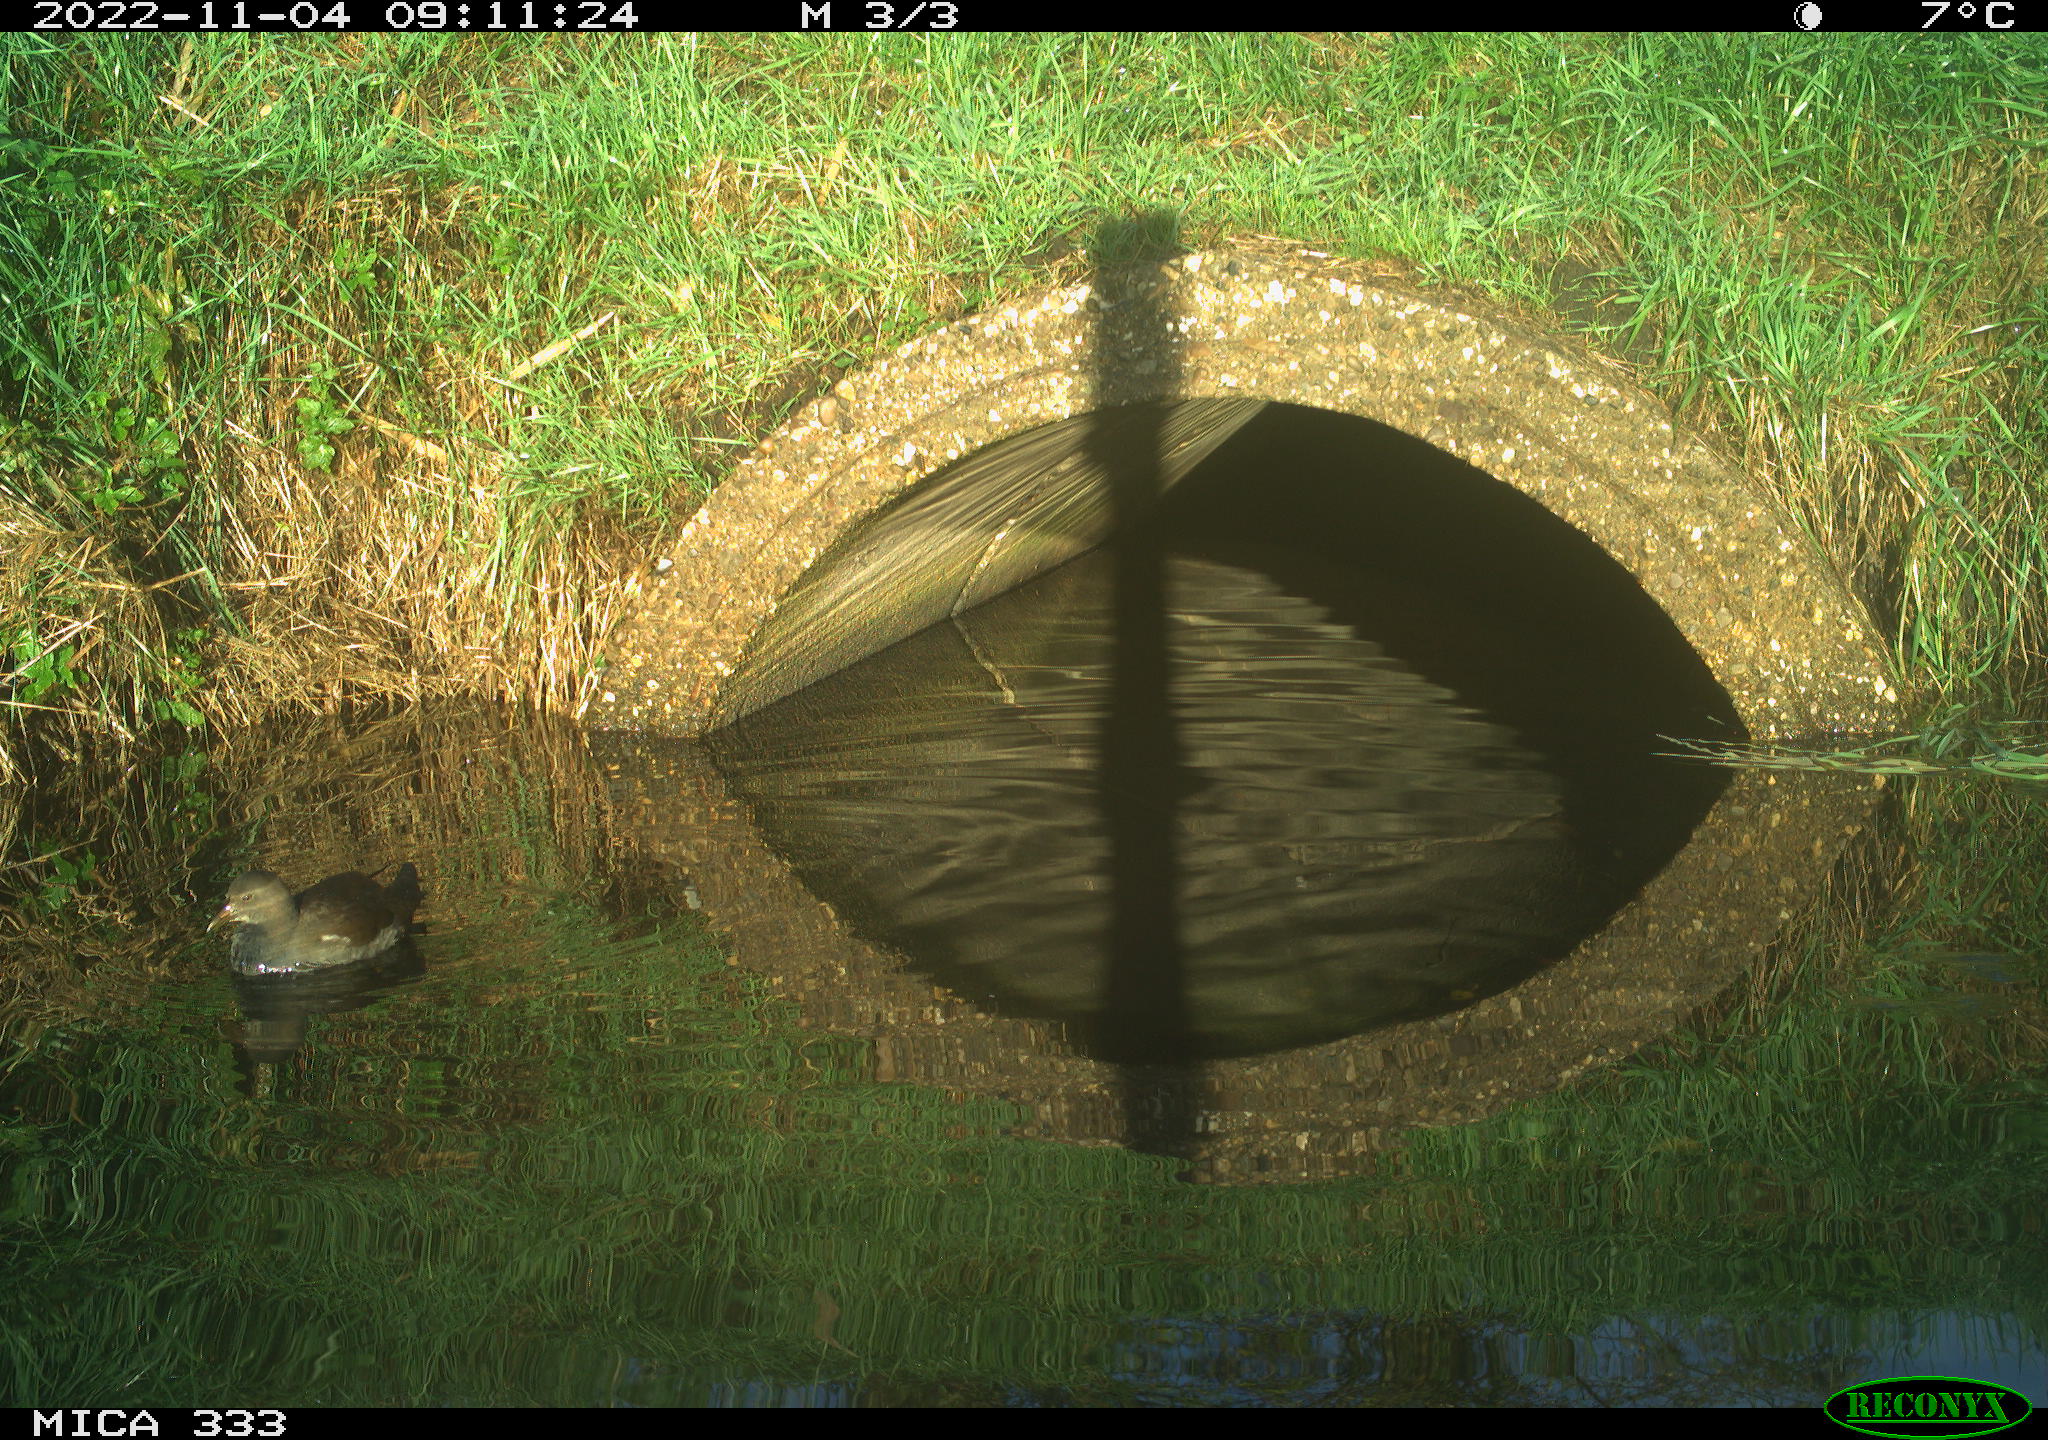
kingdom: Animalia
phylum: Chordata
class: Aves
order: Gruiformes
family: Rallidae
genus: Gallinula
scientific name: Gallinula chloropus
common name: Common moorhen
